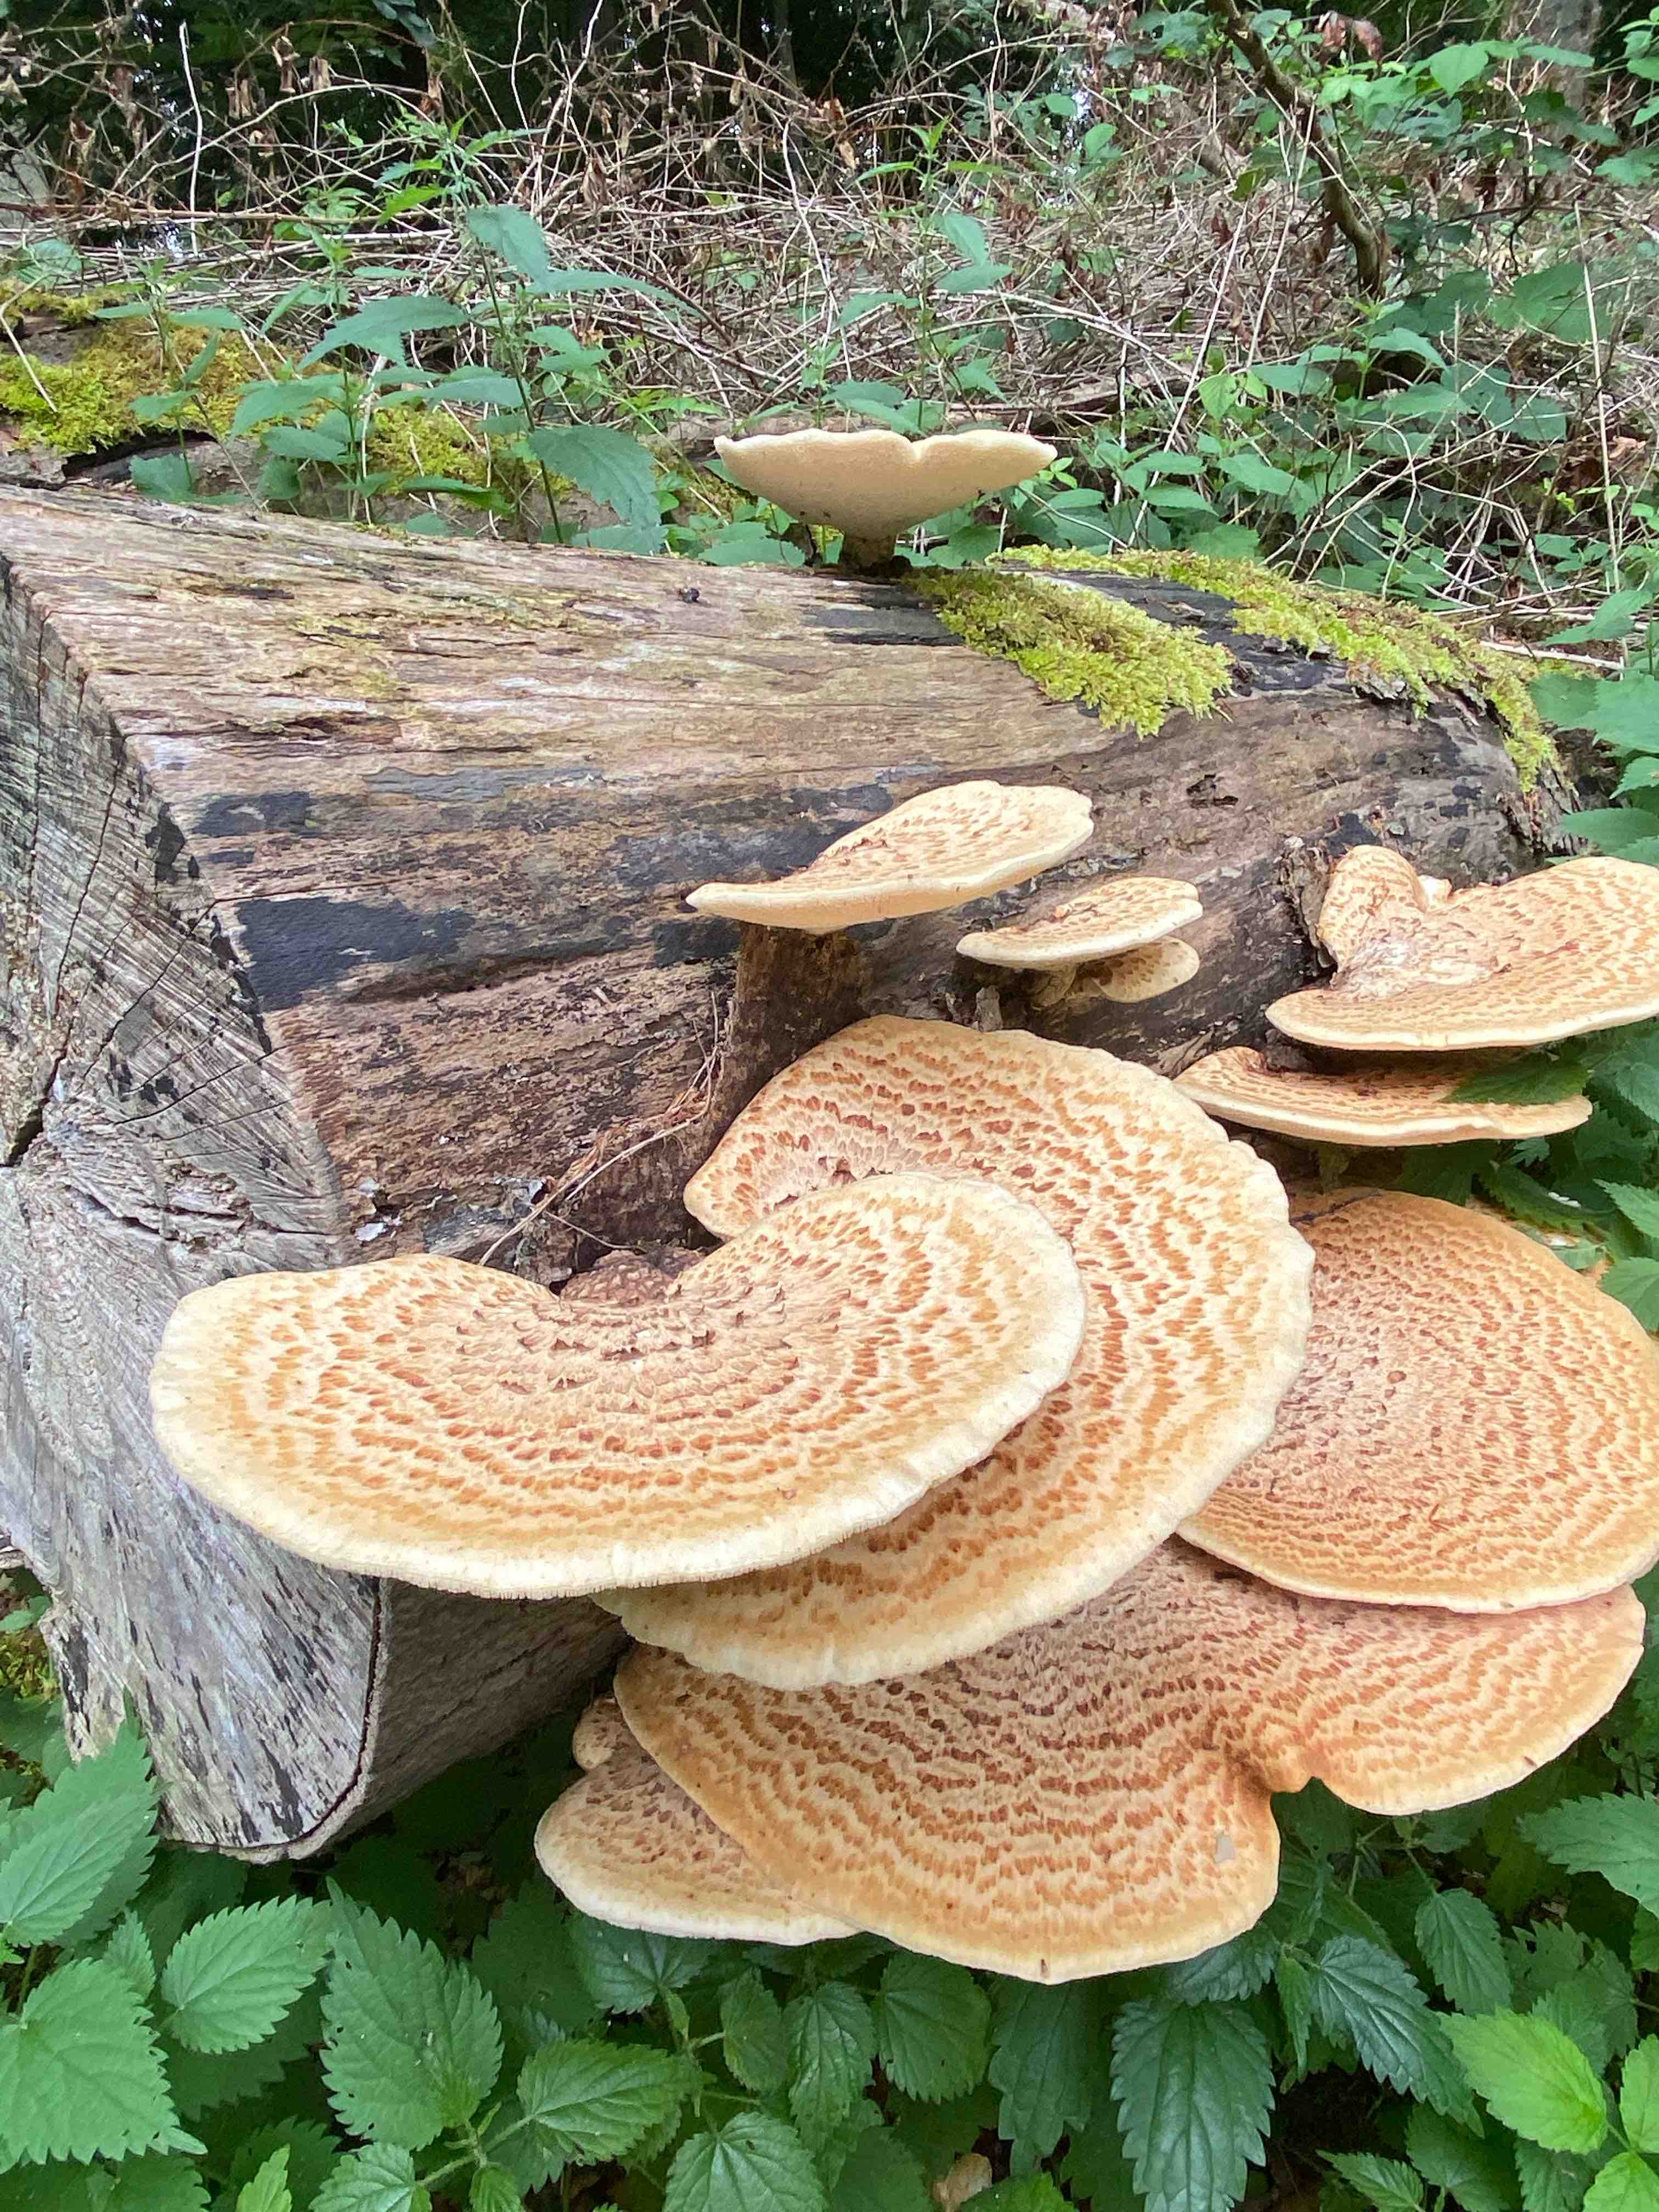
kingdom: Fungi
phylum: Basidiomycota
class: Agaricomycetes
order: Polyporales
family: Polyporaceae
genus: Cerioporus
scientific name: Cerioporus squamosus
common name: skællet stilkporesvamp
